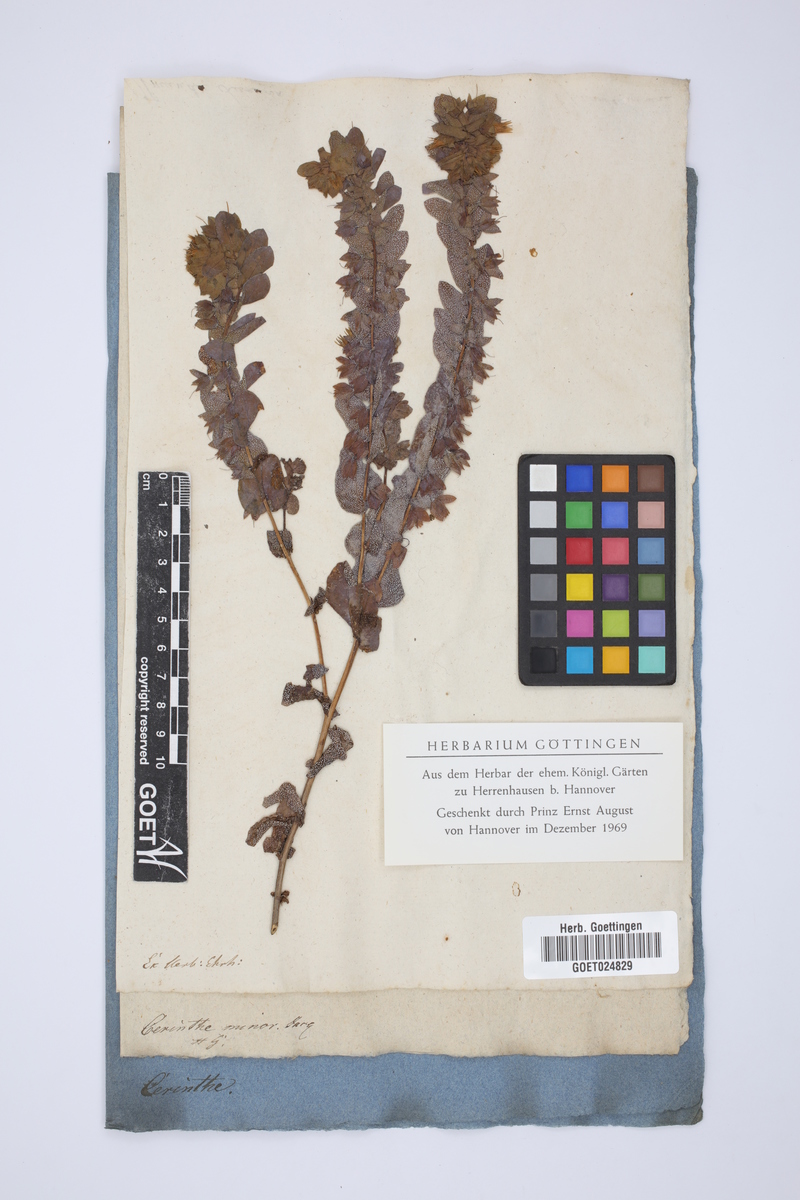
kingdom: Plantae
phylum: Tracheophyta
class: Magnoliopsida
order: Boraginales
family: Boraginaceae
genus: Cerinthe
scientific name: Cerinthe minor
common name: Lesser honeywort
